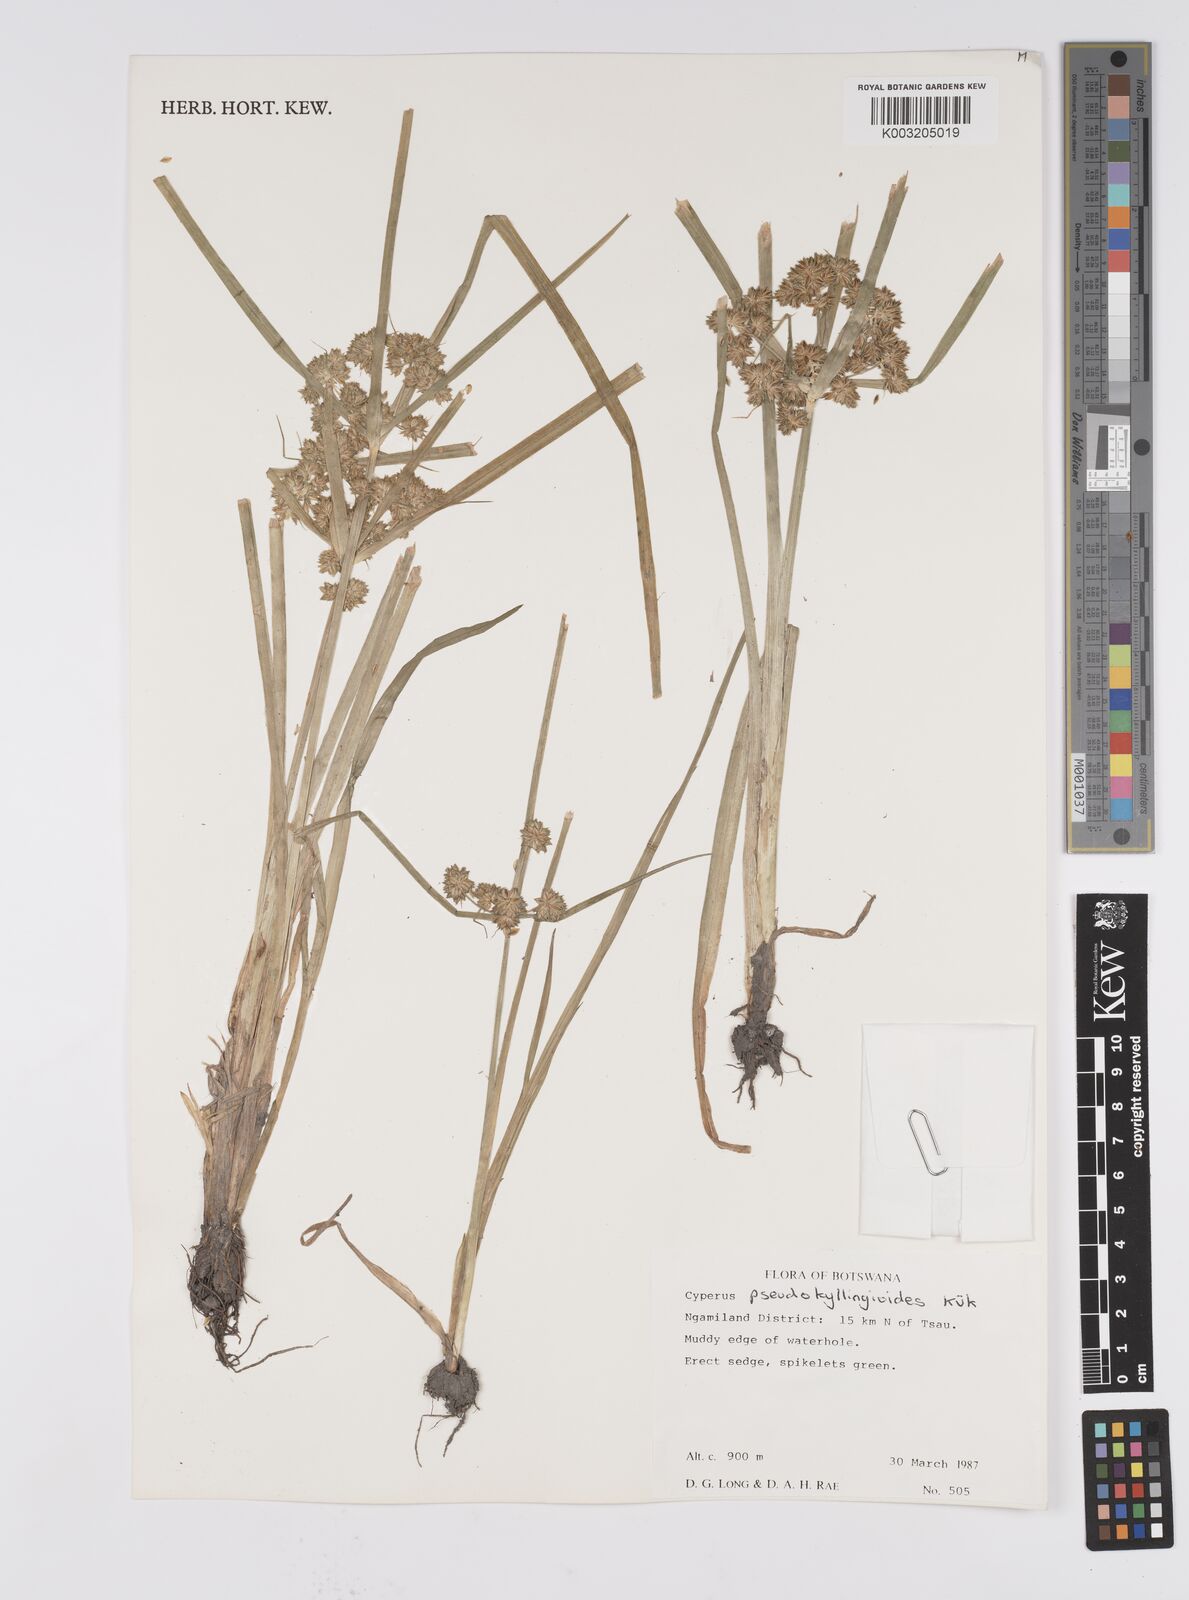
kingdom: Plantae
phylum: Tracheophyta
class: Liliopsida
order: Poales
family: Cyperaceae
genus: Cyperus
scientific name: Cyperus cyperoides
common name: Pacific island flat sedge
